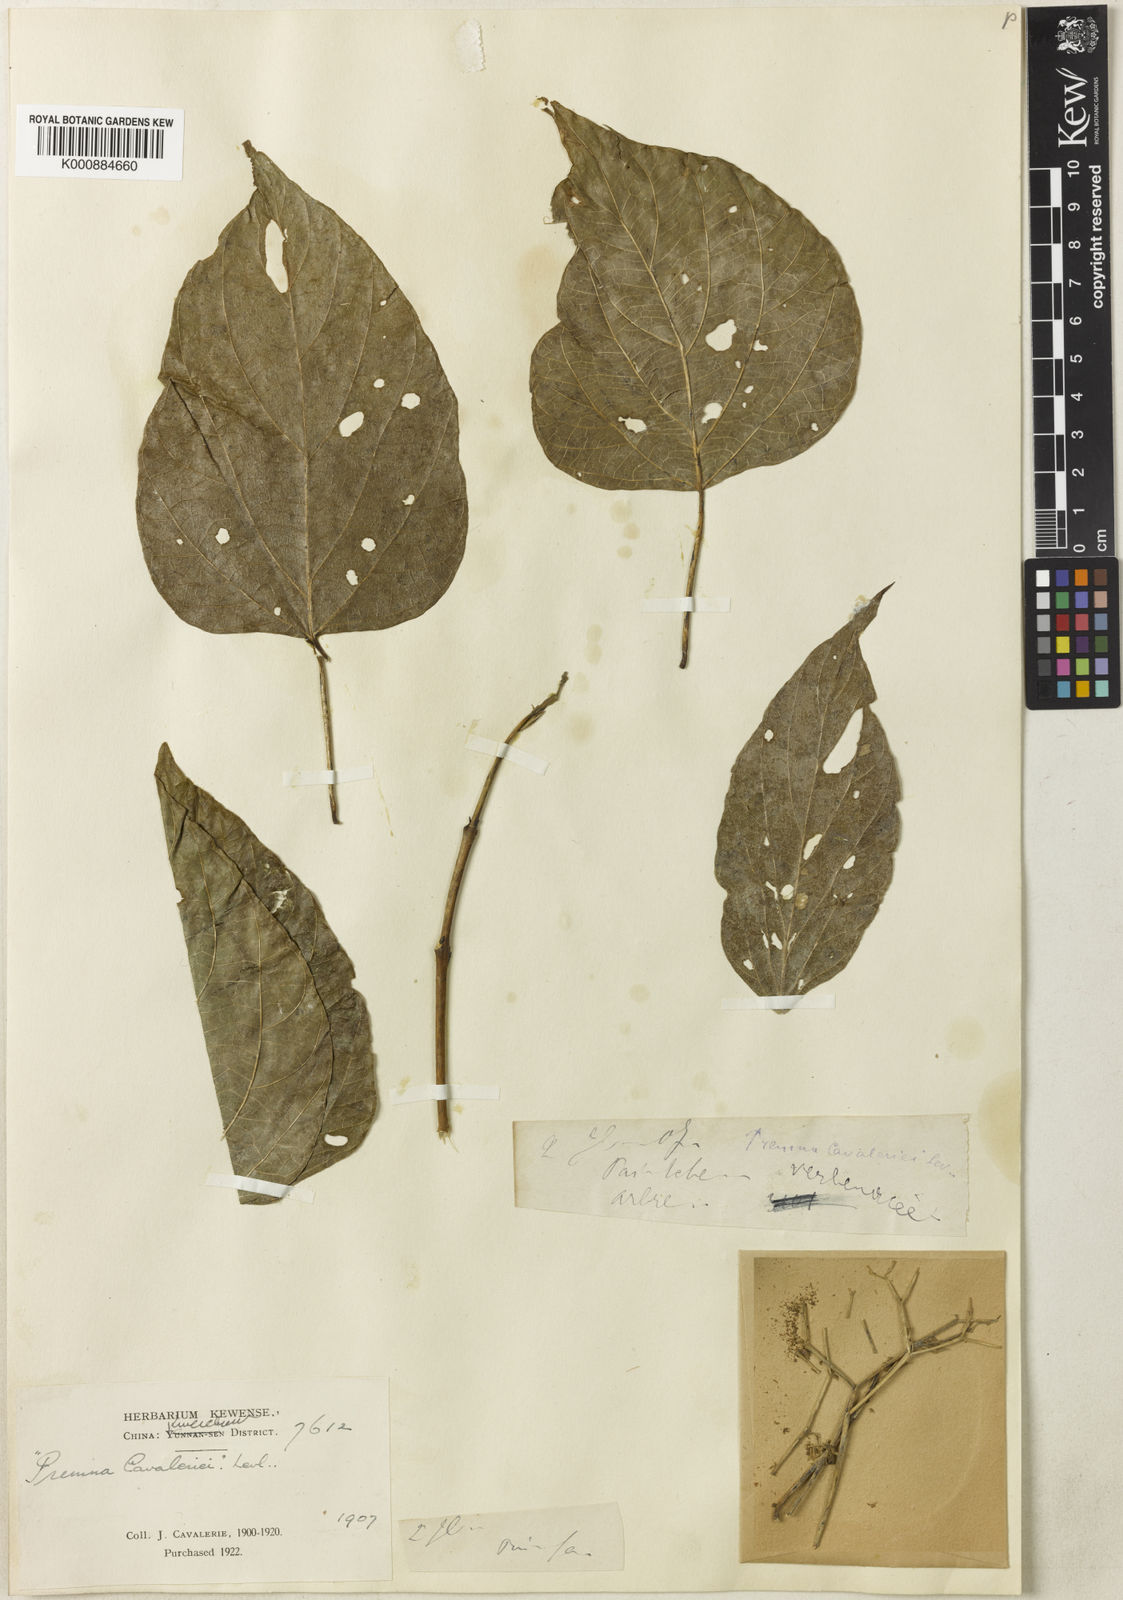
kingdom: Plantae
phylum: Tracheophyta
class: Magnoliopsida
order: Lamiales
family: Lamiaceae
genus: Premna
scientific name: Premna
